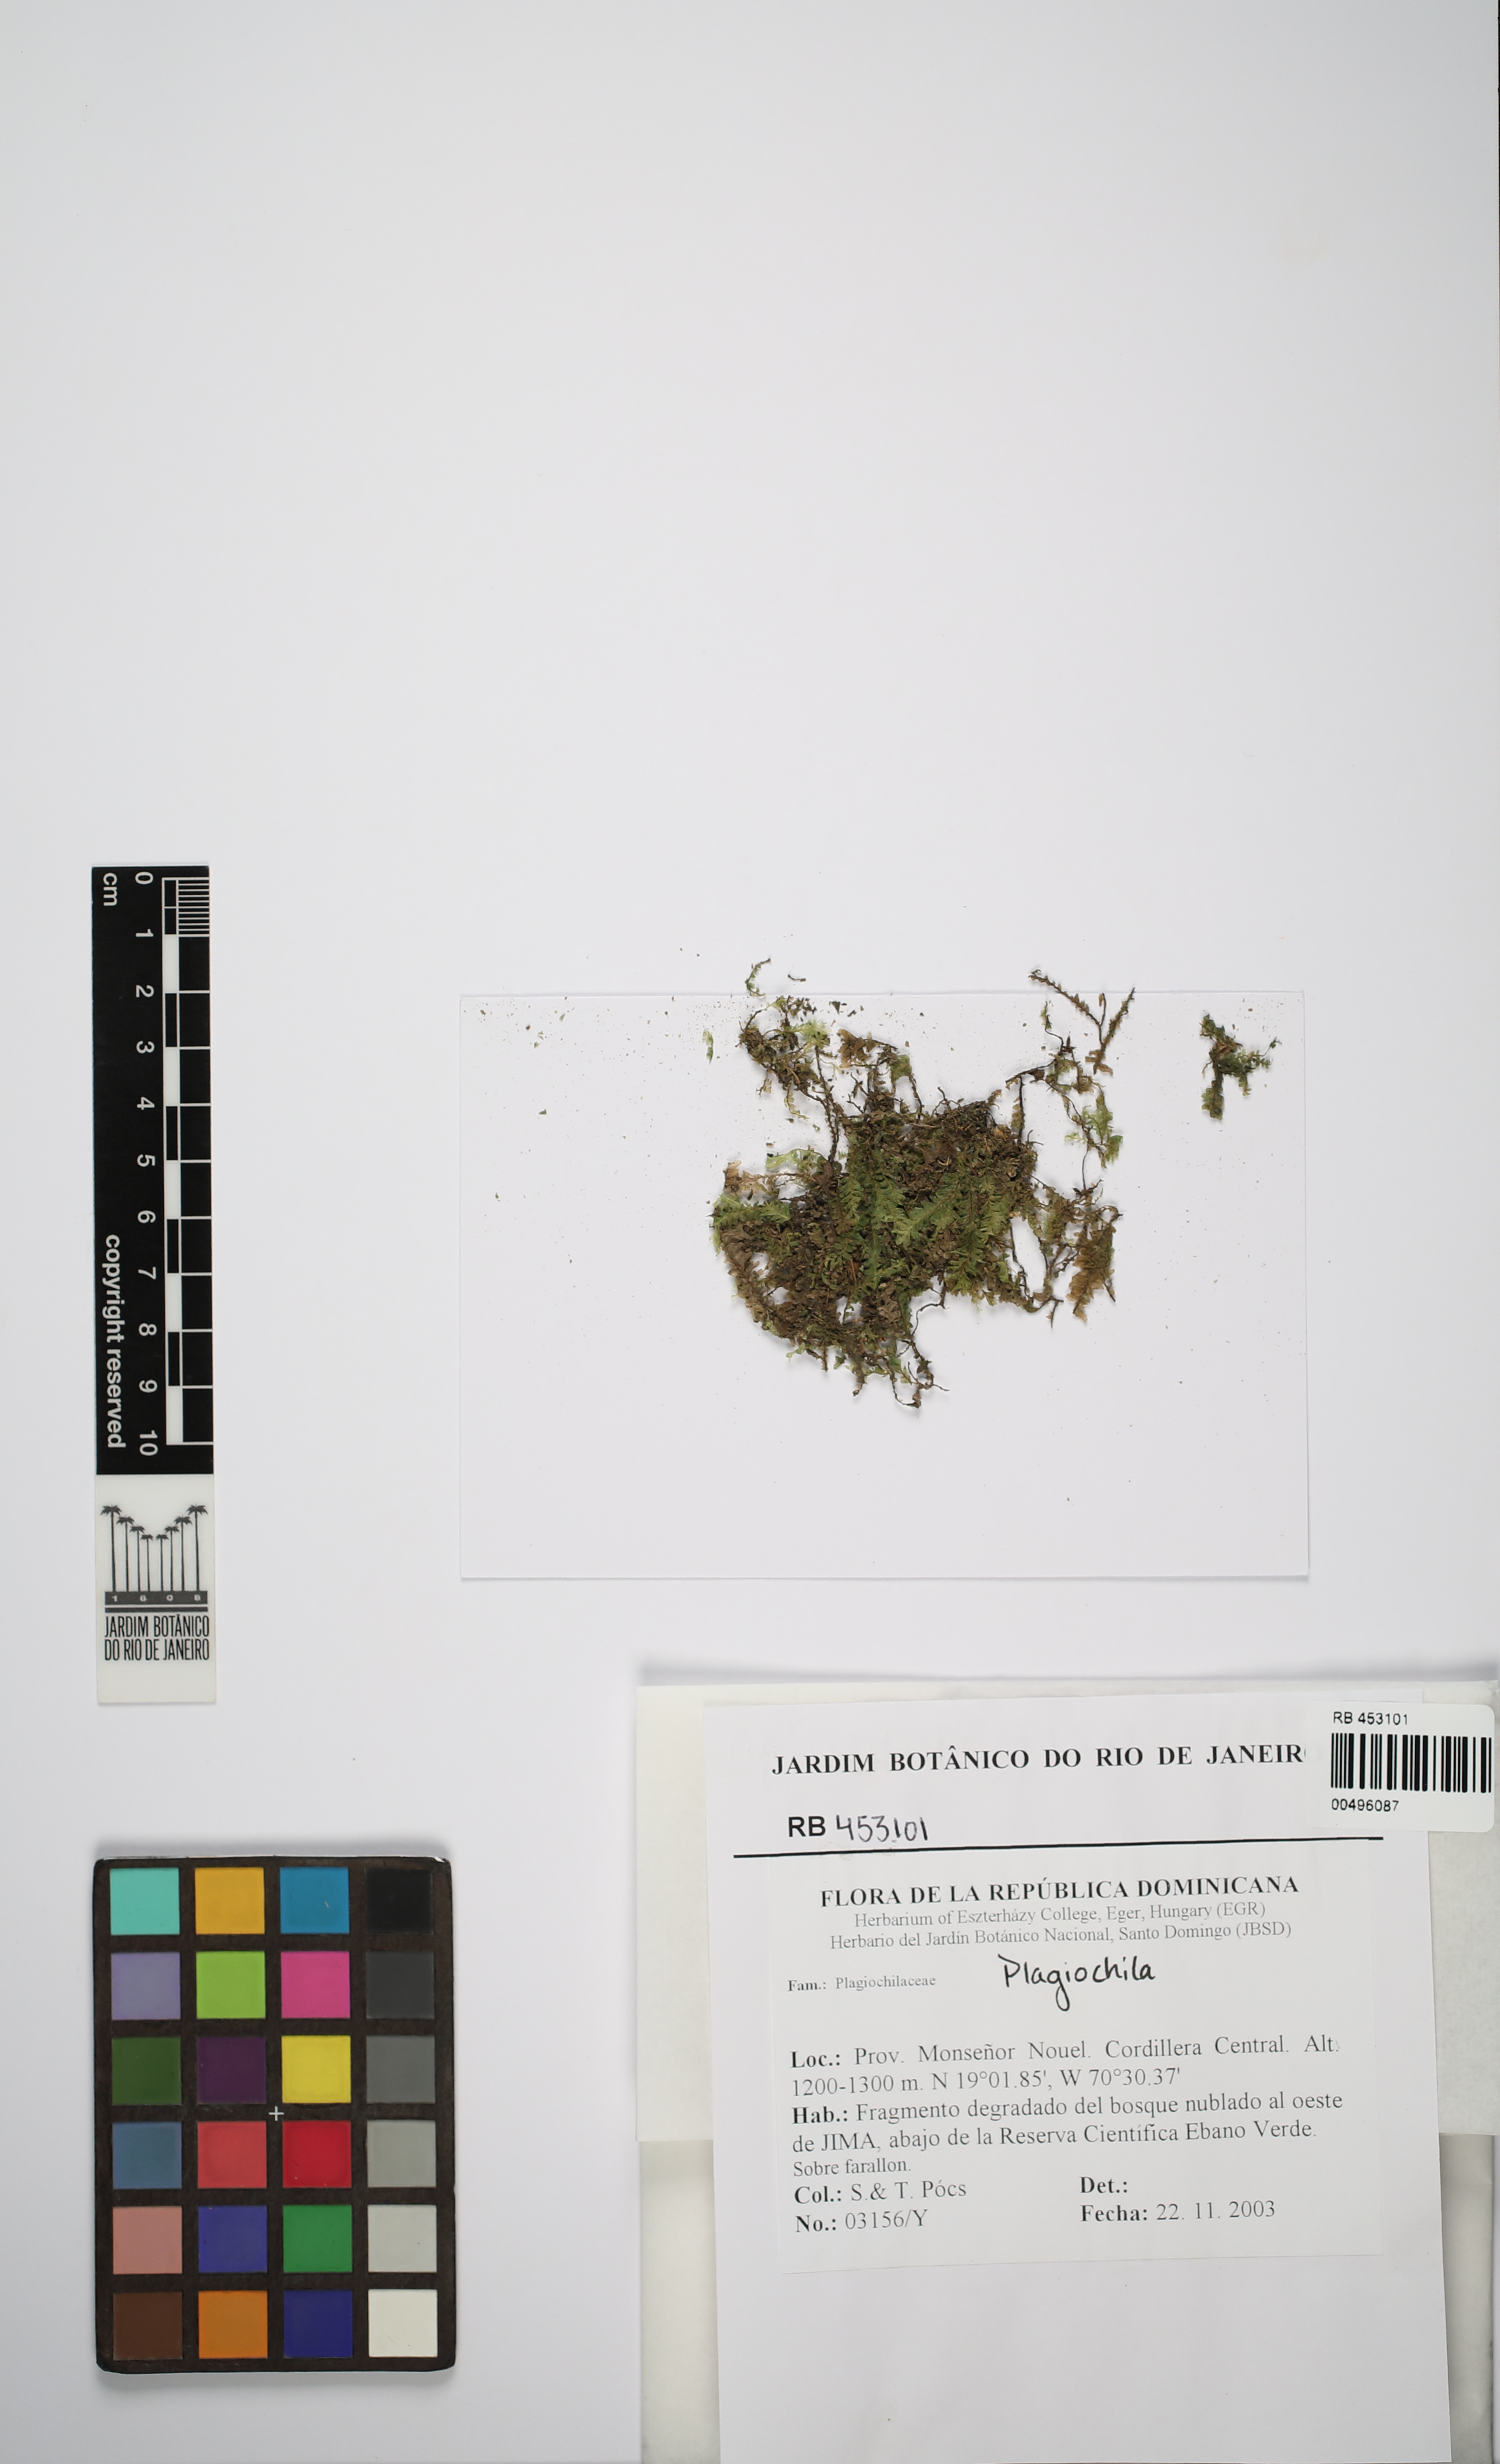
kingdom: Plantae
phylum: Marchantiophyta
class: Jungermanniopsida
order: Jungermanniales
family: Plagiochilaceae
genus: Plagiochila
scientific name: Plagiochila
